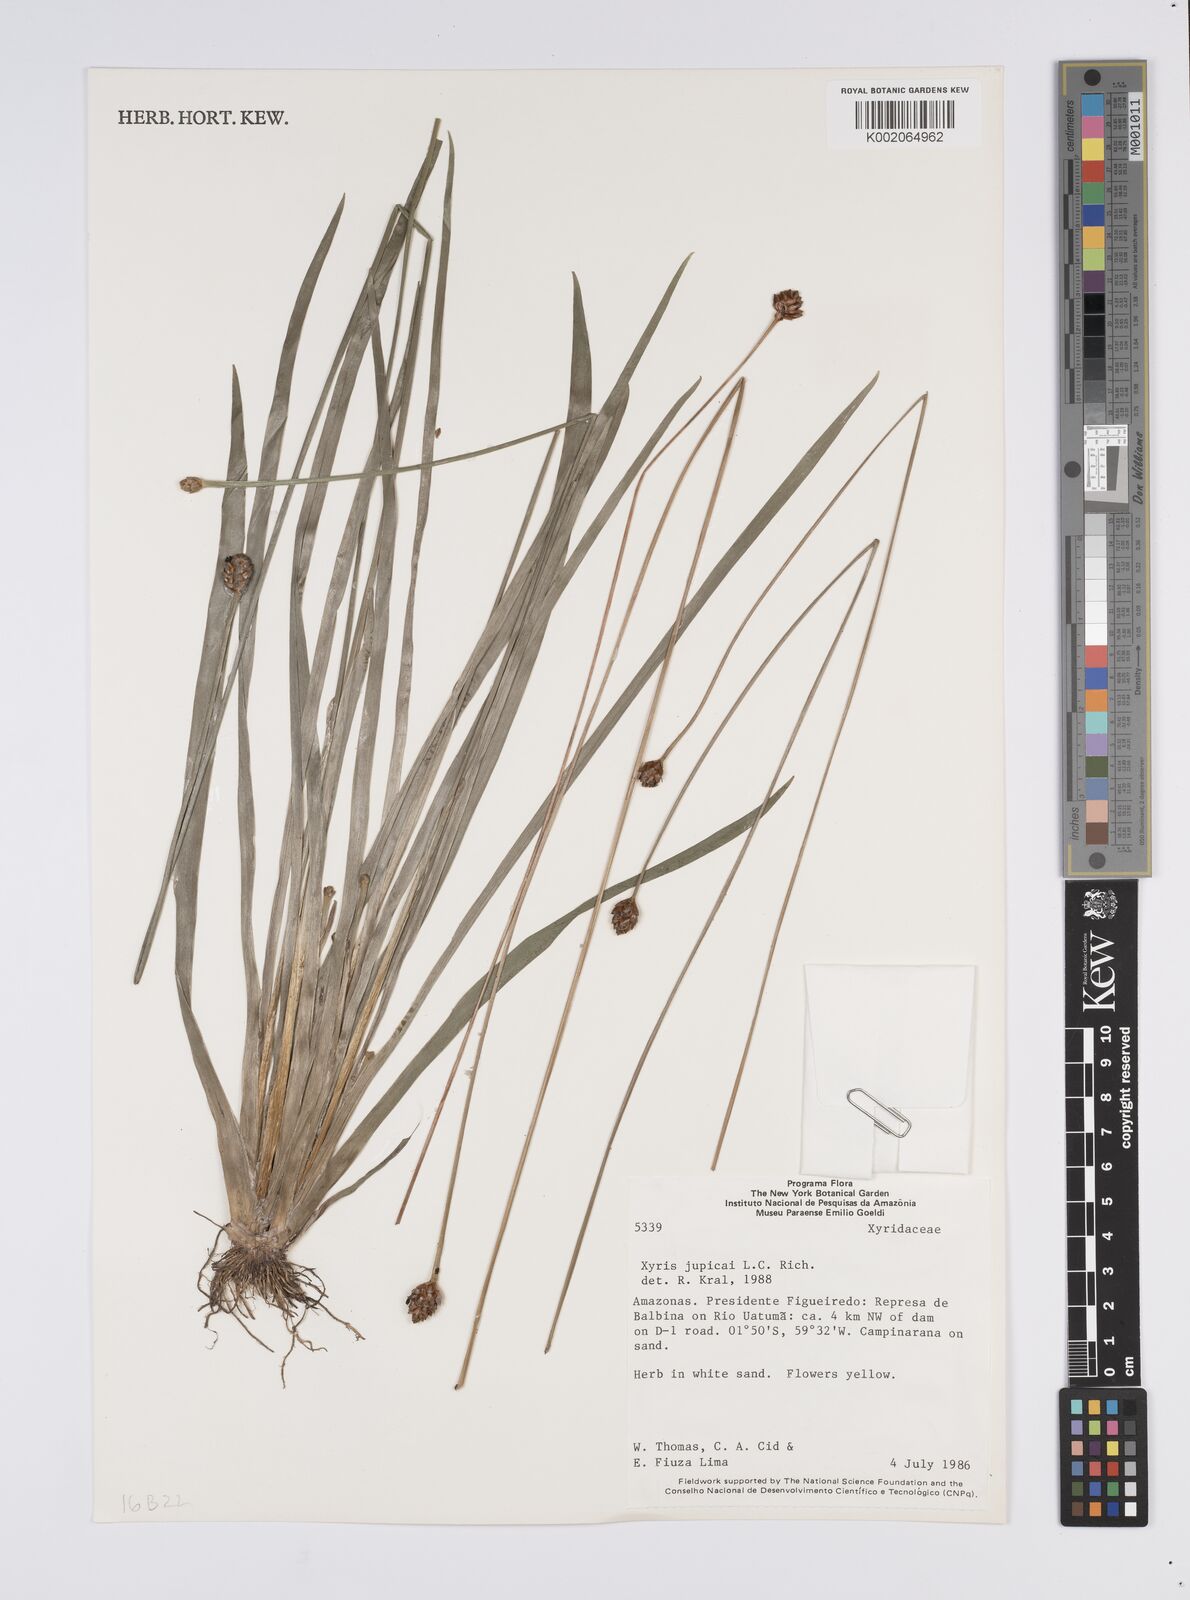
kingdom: Plantae
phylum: Tracheophyta
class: Liliopsida
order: Poales
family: Xyridaceae
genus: Xyris
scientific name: Xyris jupicai
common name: Richard's yelloweyed grass
